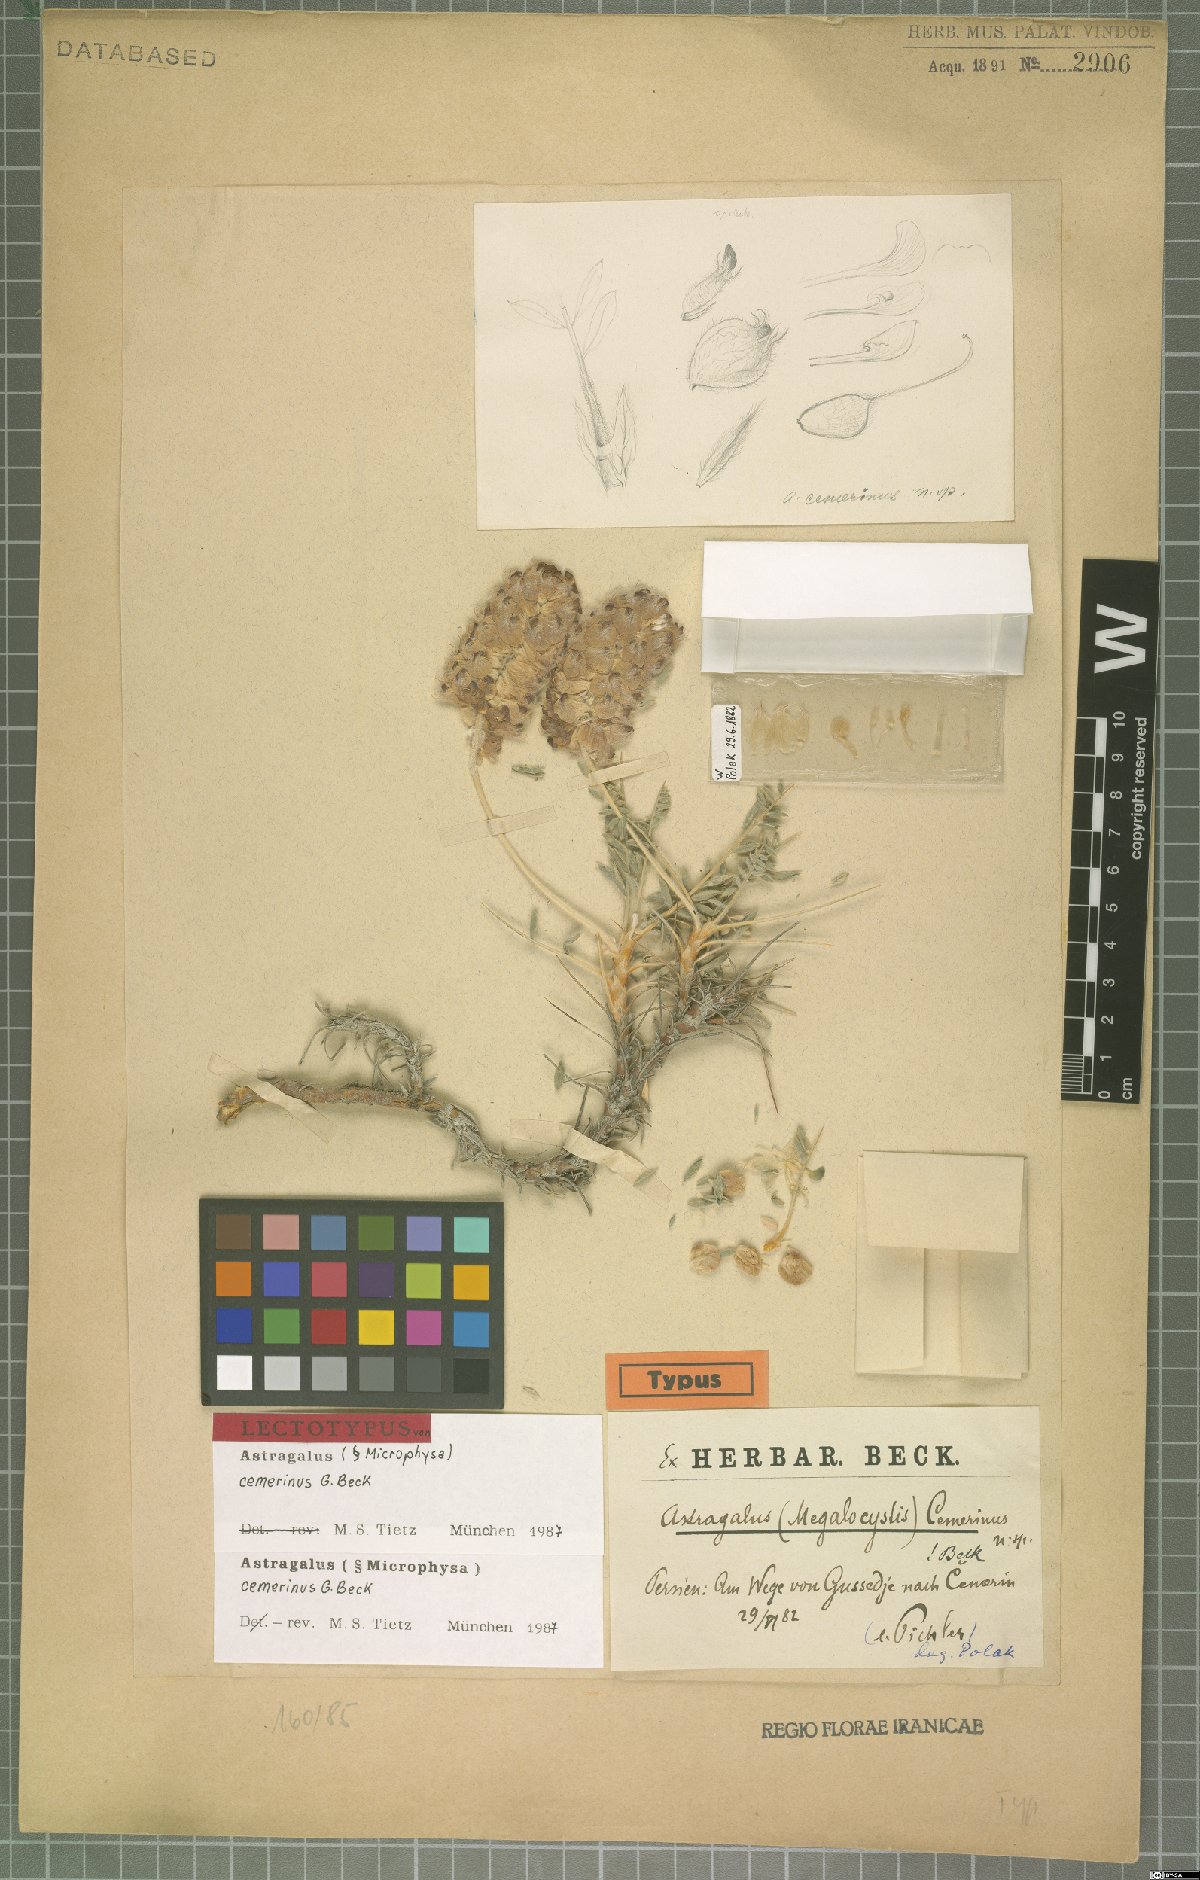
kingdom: Plantae
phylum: Tracheophyta
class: Magnoliopsida
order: Fabales
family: Fabaceae
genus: Astragalus
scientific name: Astragalus cemerinus
